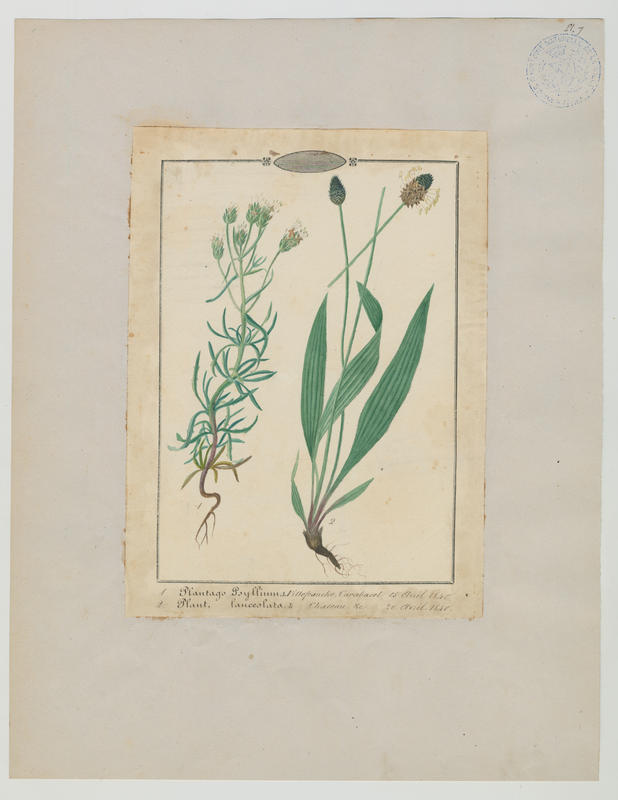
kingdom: Plantae
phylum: Tracheophyta
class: Magnoliopsida
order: Lamiales
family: Plantaginaceae
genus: Plantago
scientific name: Plantago lanceolata
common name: Ribwort plantain
